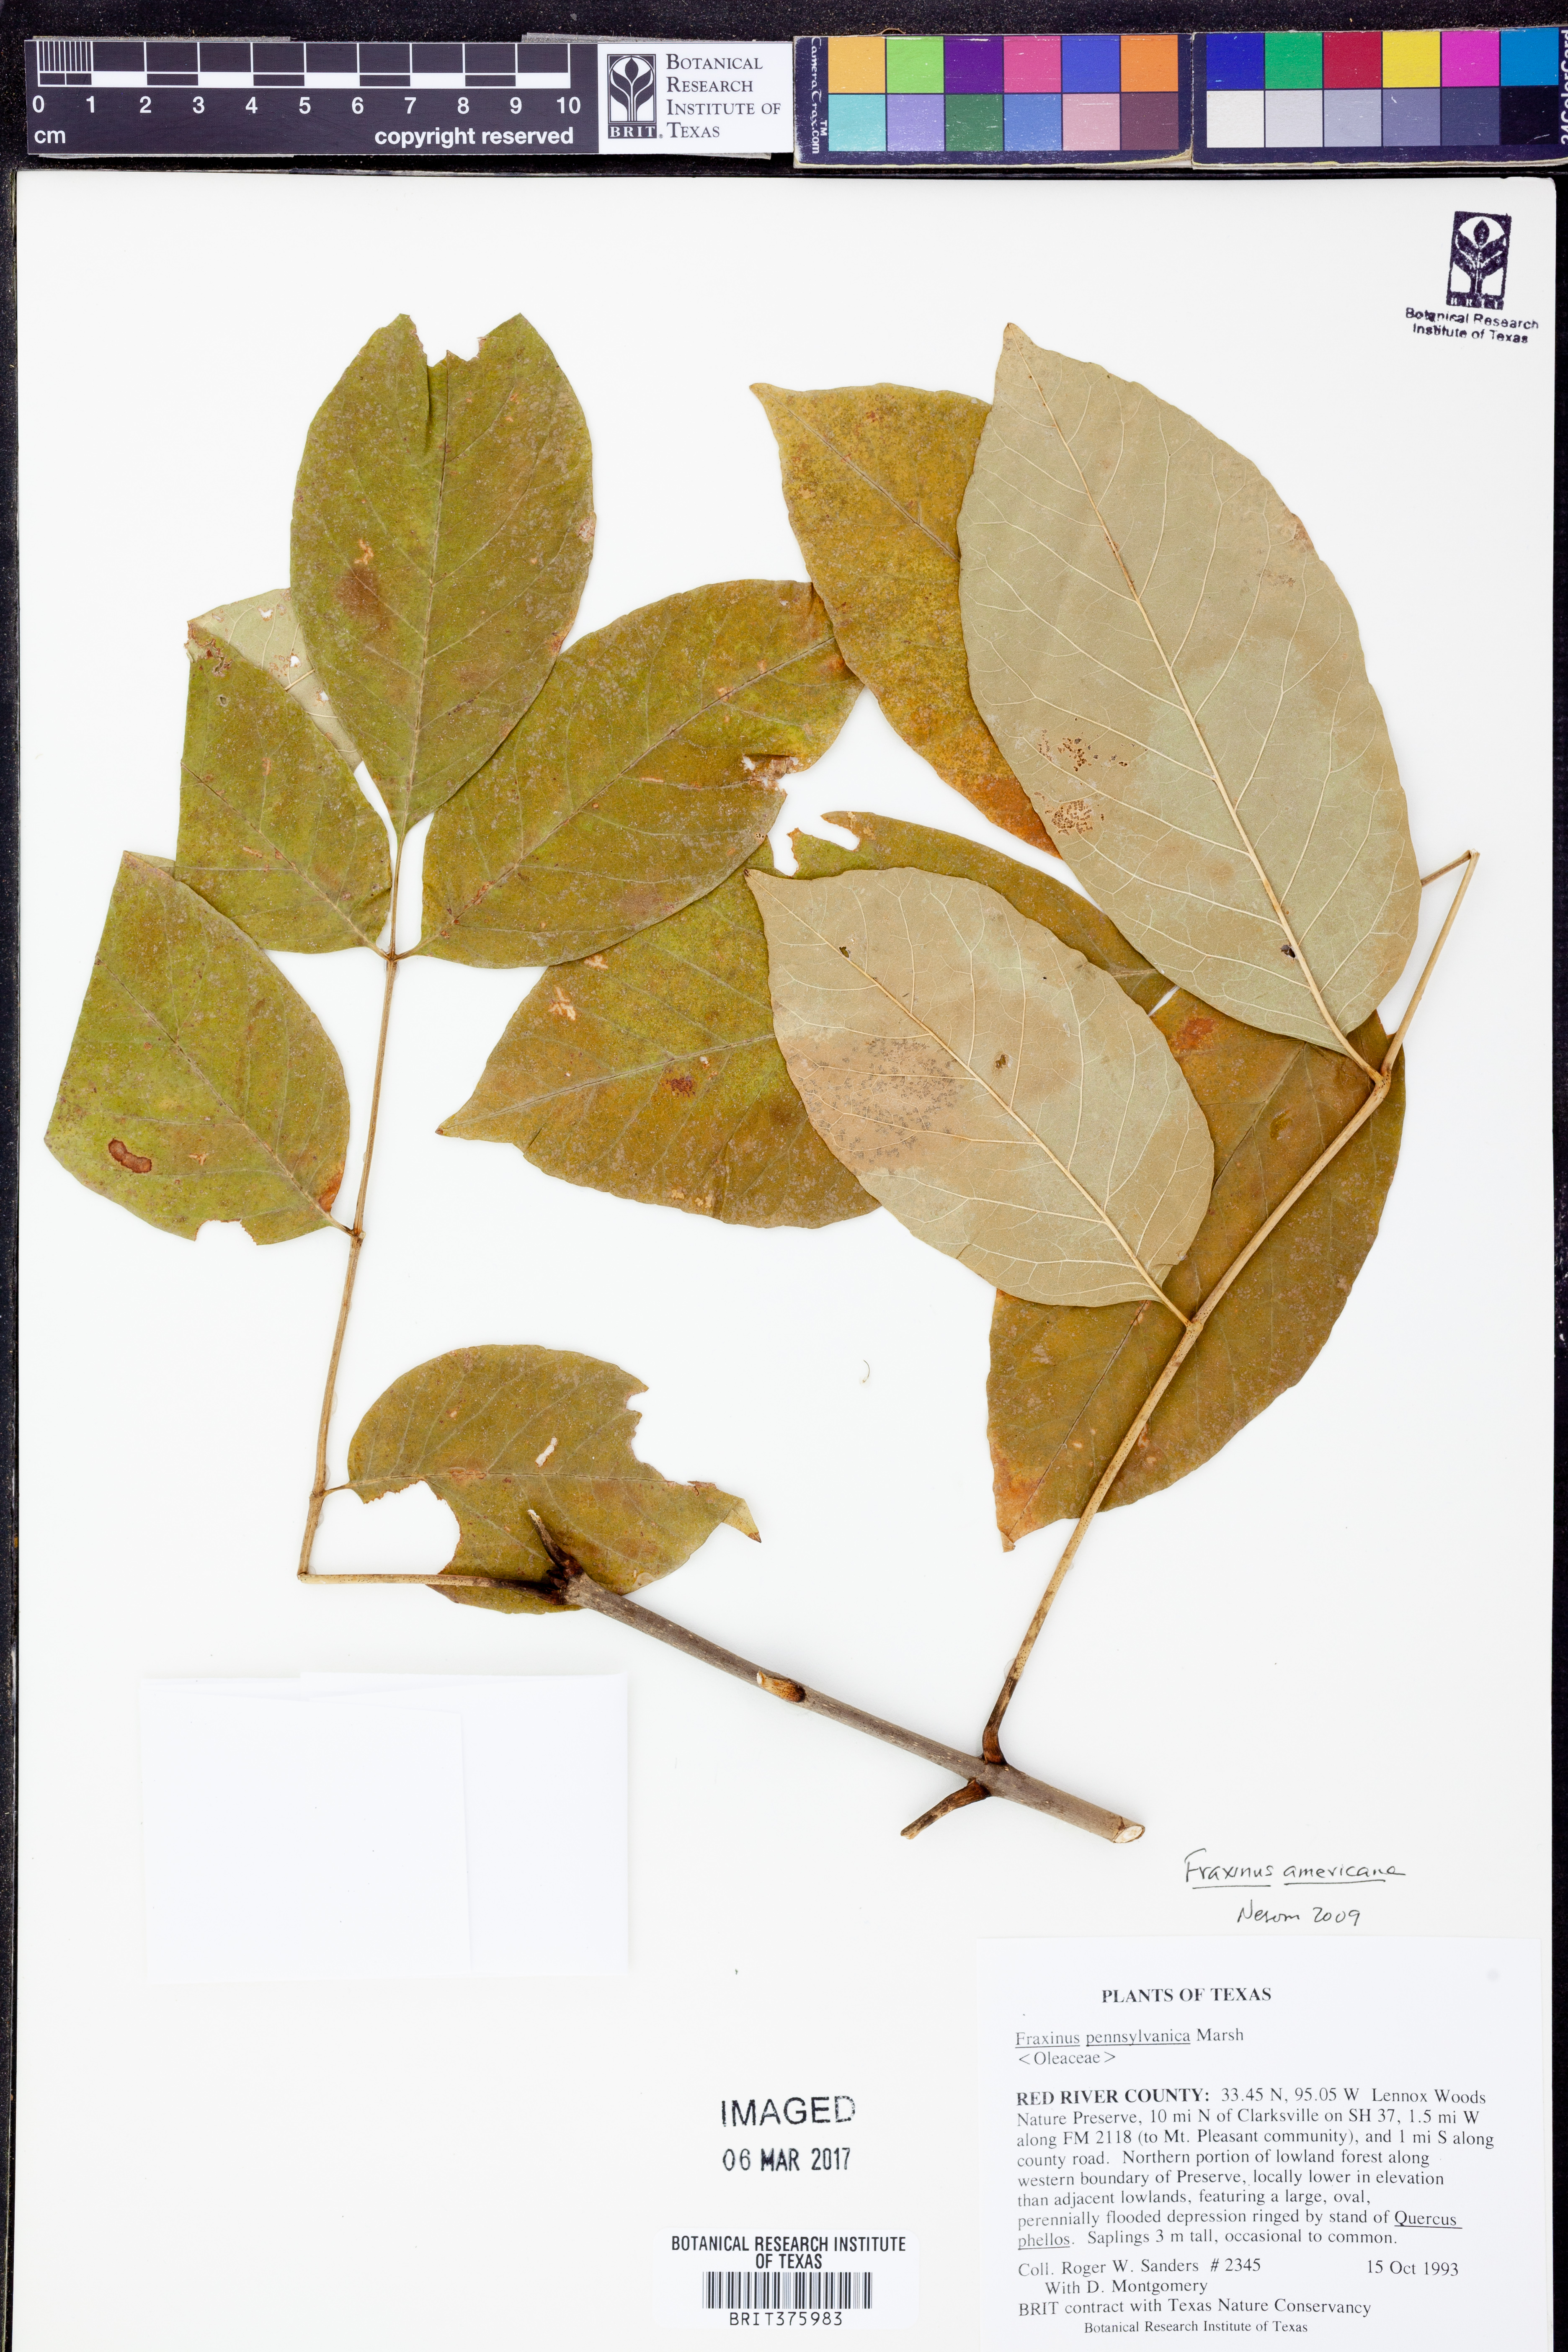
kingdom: Plantae
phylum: Tracheophyta
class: Magnoliopsida
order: Lamiales
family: Oleaceae
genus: Fraxinus
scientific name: Fraxinus americana
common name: White ash
